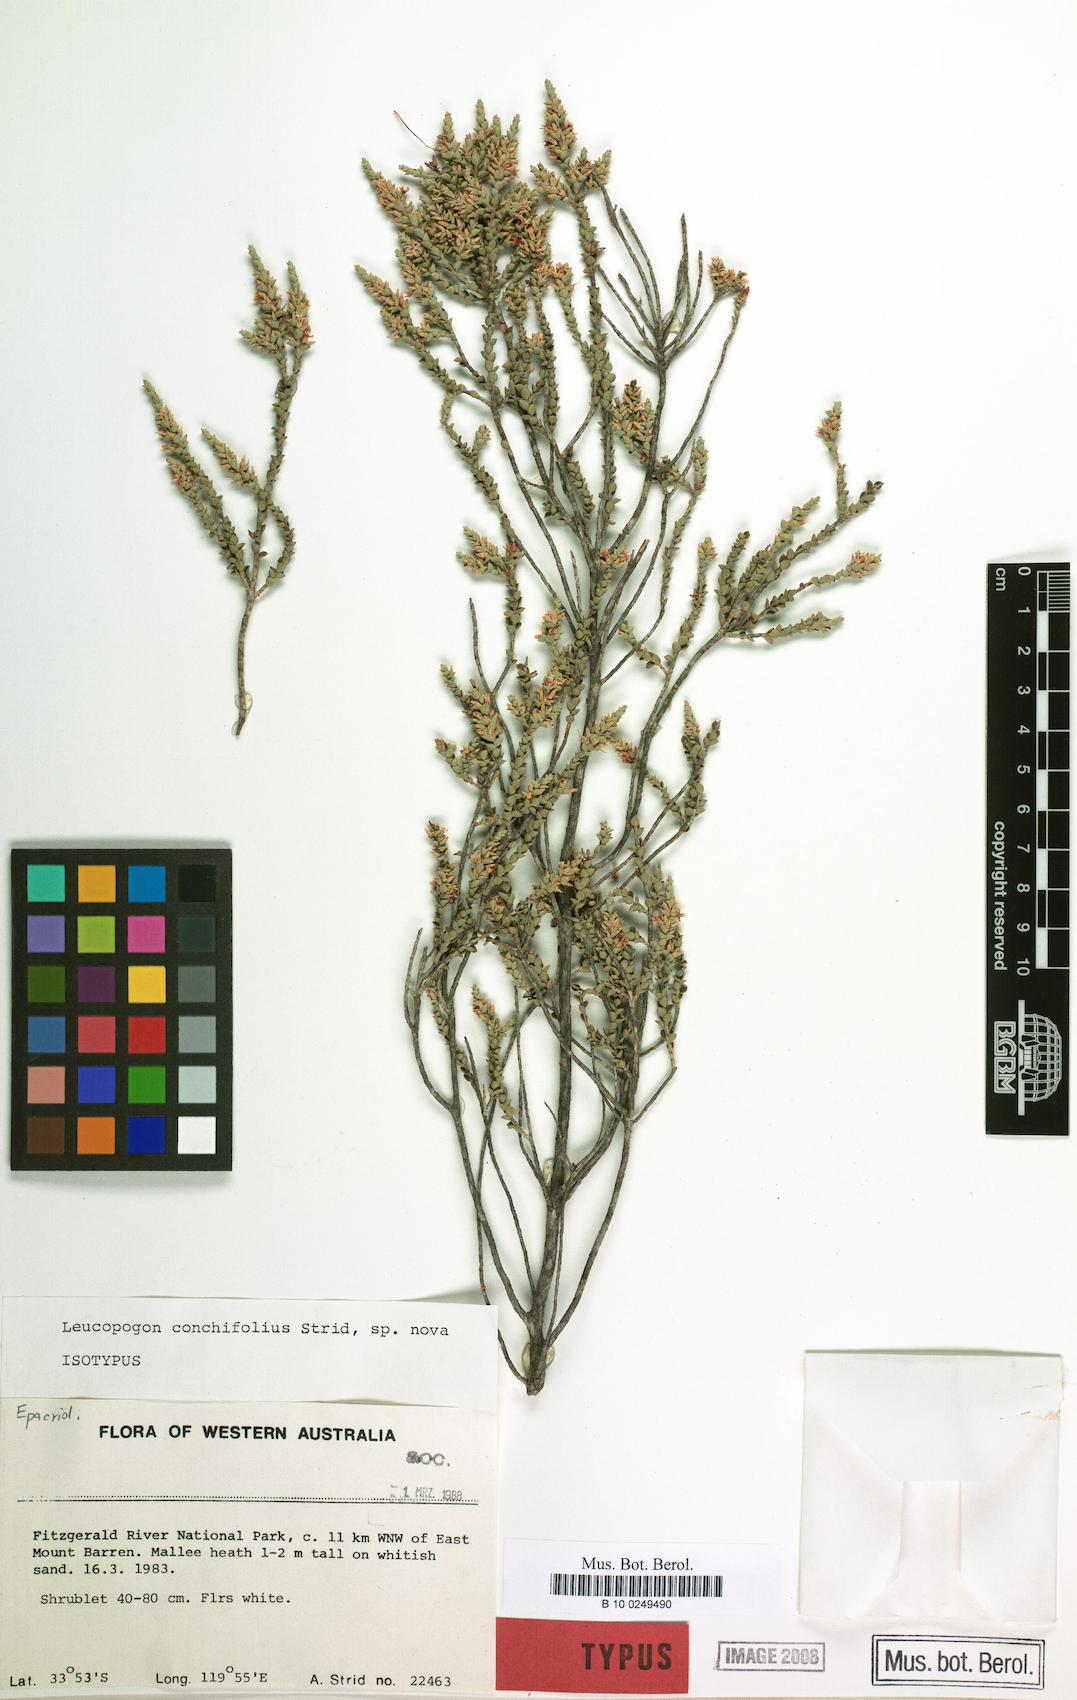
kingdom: Plantae
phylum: Tracheophyta
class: Magnoliopsida
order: Ericales
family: Ericaceae
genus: Styphelia
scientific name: Styphelia conchifolia
